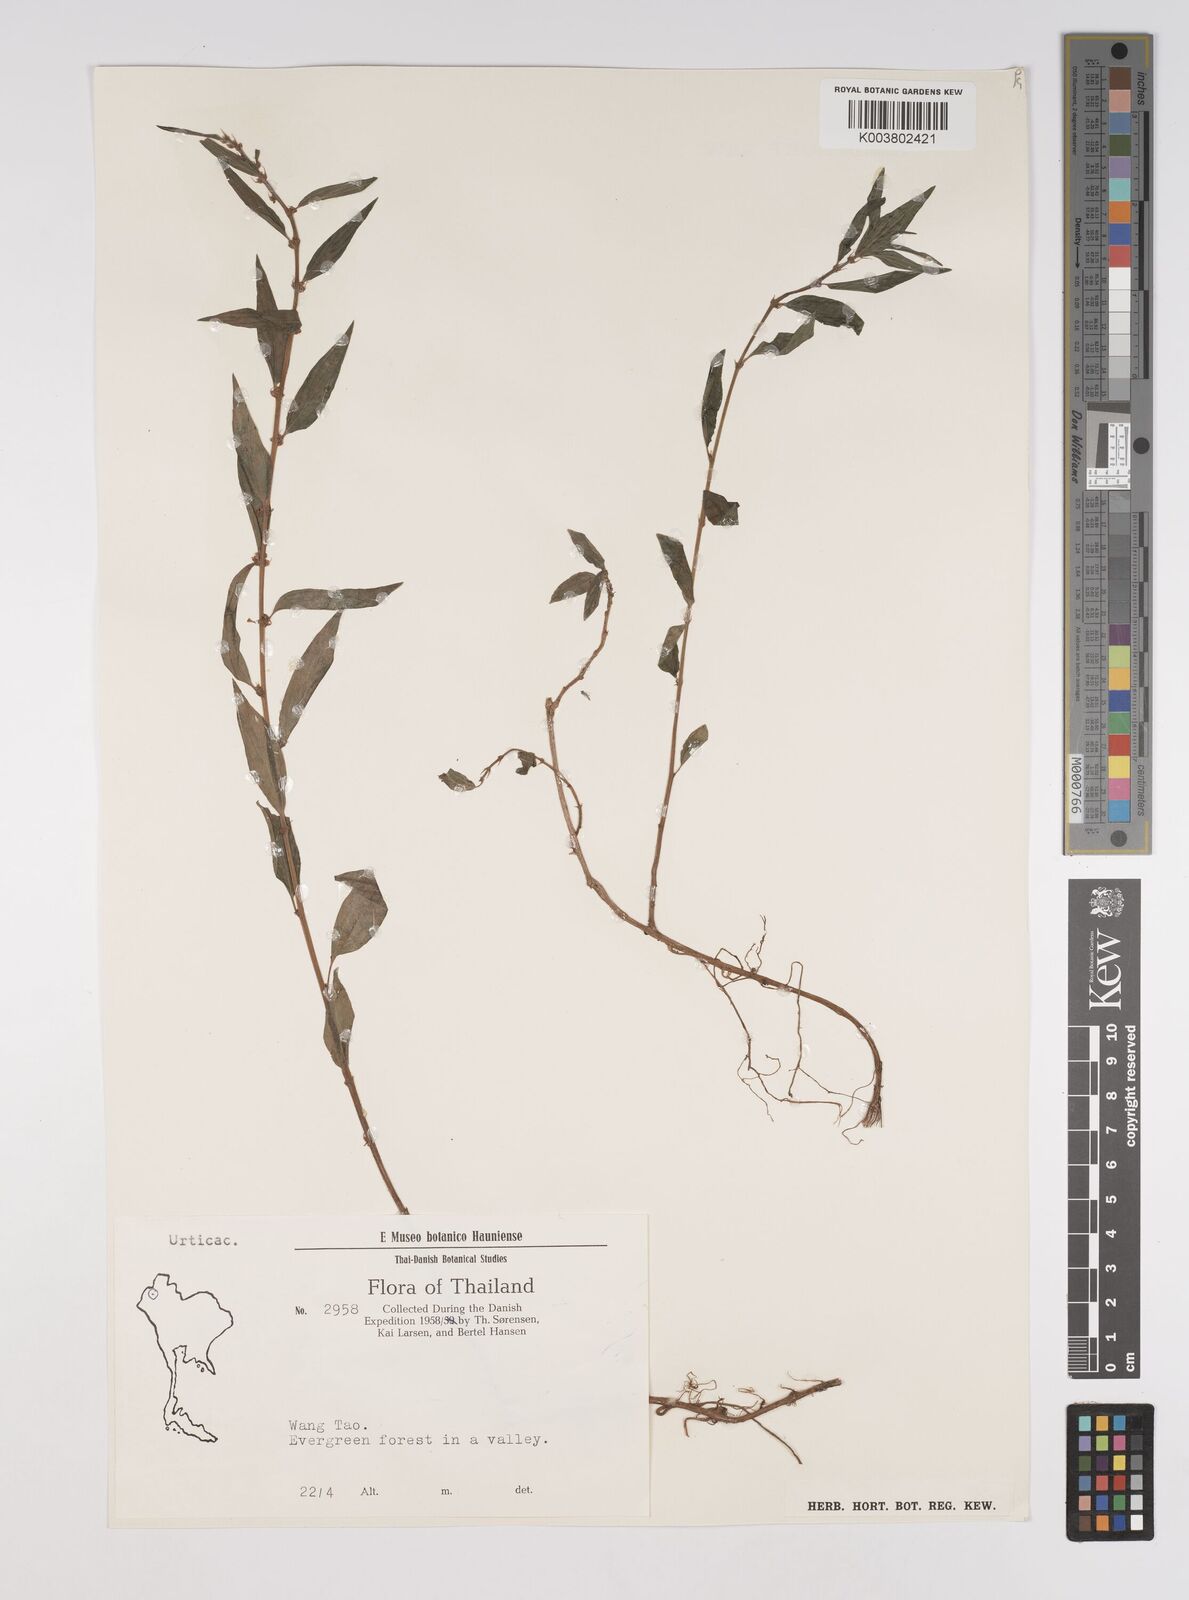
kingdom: Plantae
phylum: Tracheophyta
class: Magnoliopsida
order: Rosales
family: Urticaceae
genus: Pouzolzia
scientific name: Pouzolzia zeylanica
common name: Graceful pouzolzsbush
